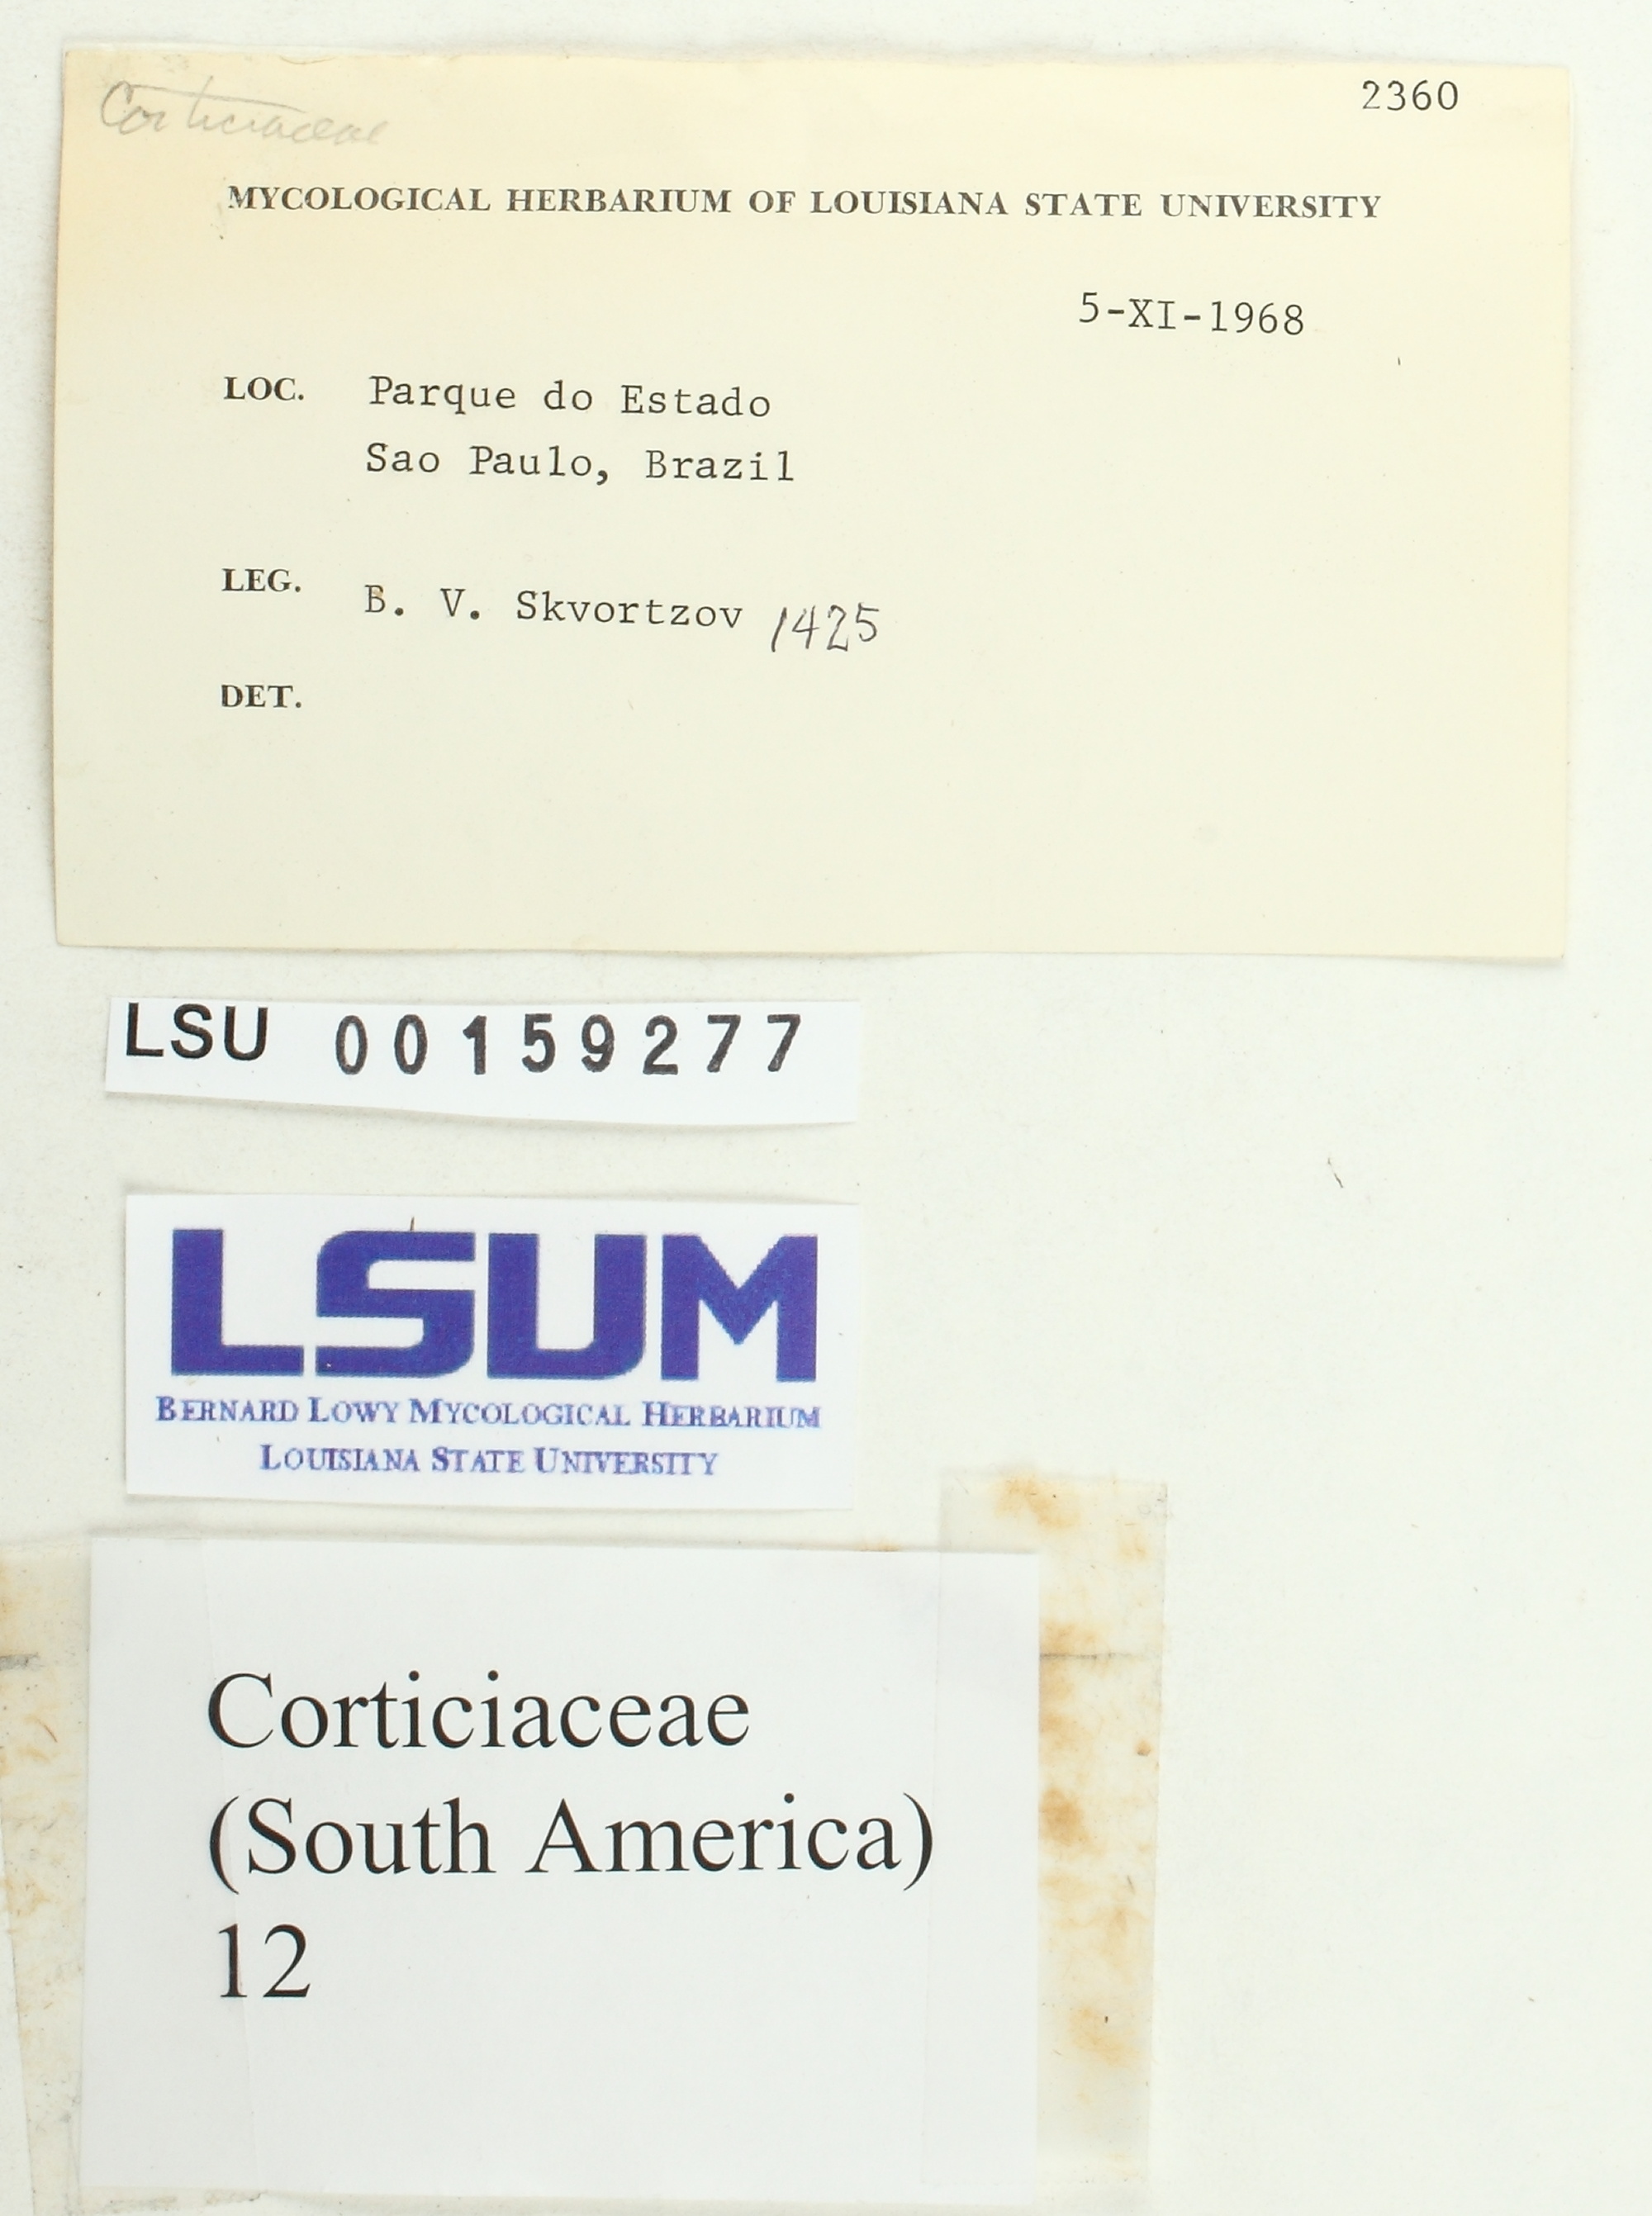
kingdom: Fungi
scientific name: Fungi
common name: Fungi
